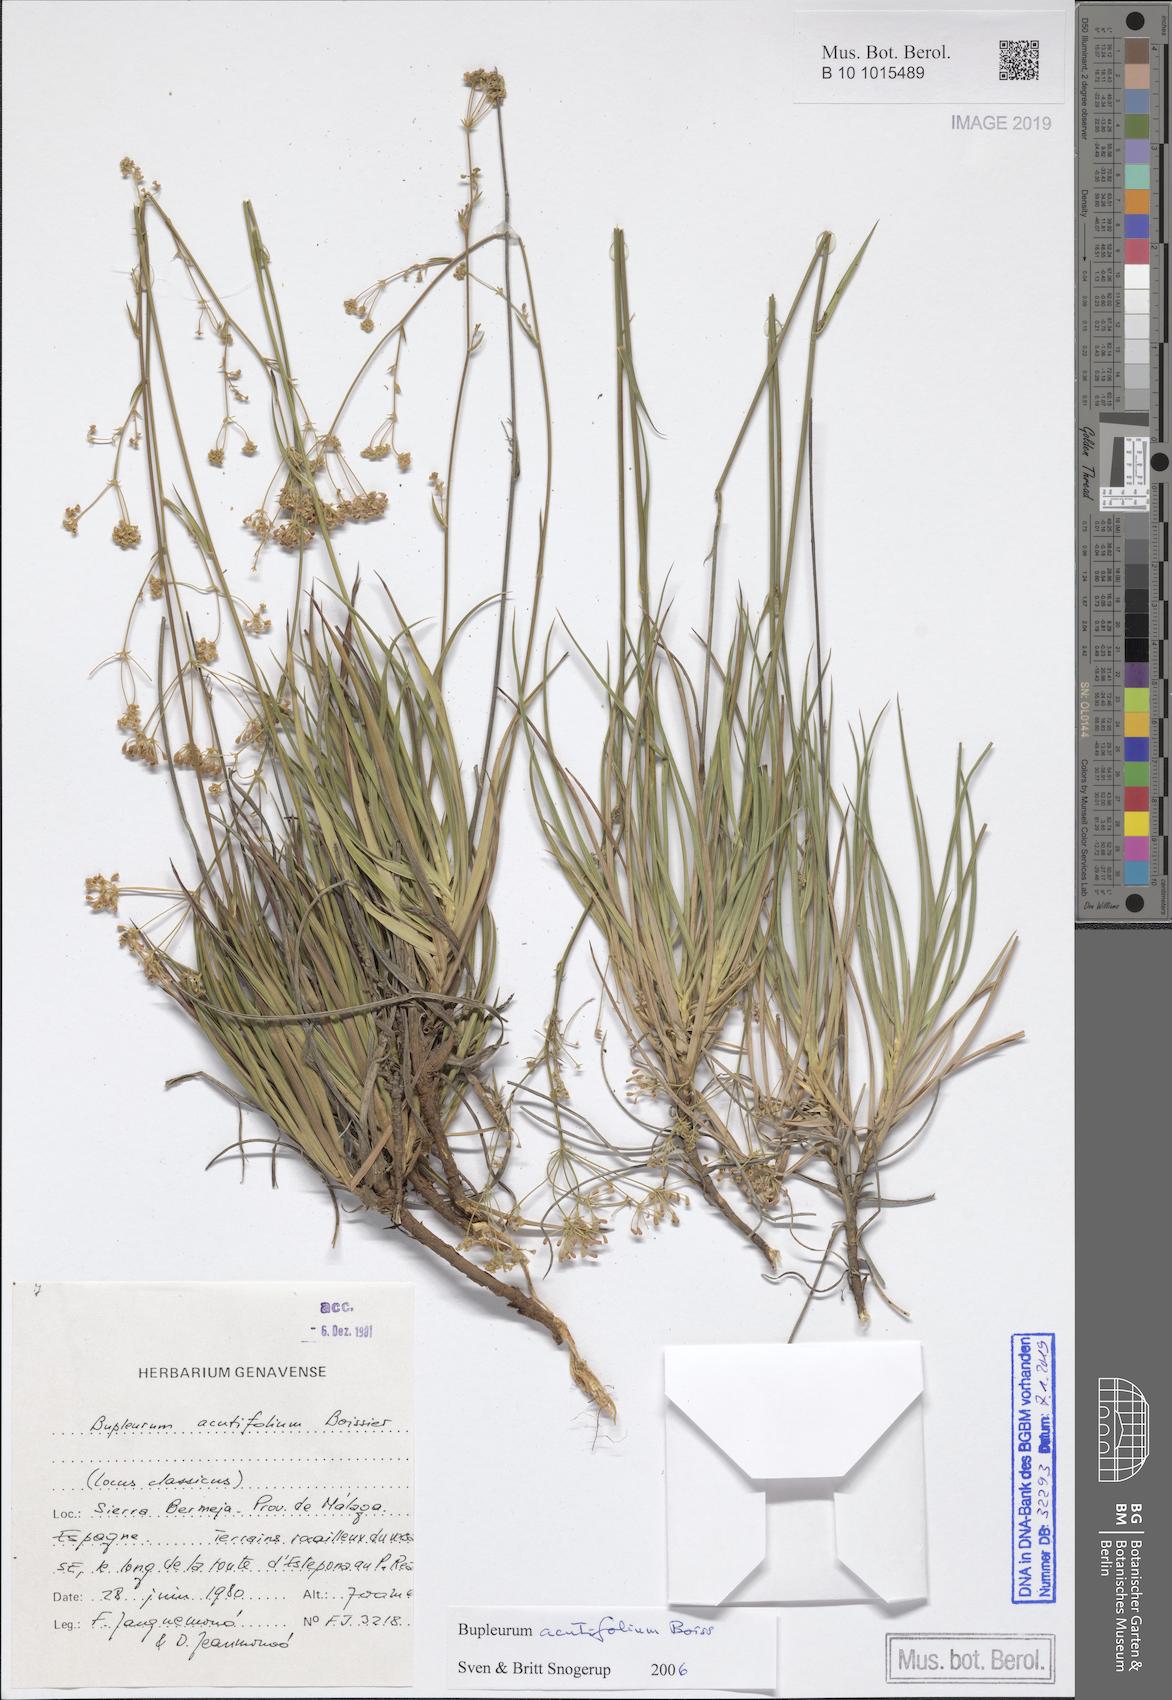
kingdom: Plantae
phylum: Tracheophyta
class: Magnoliopsida
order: Apiales
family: Apiaceae
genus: Bupleurum
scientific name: Bupleurum acutifolium
